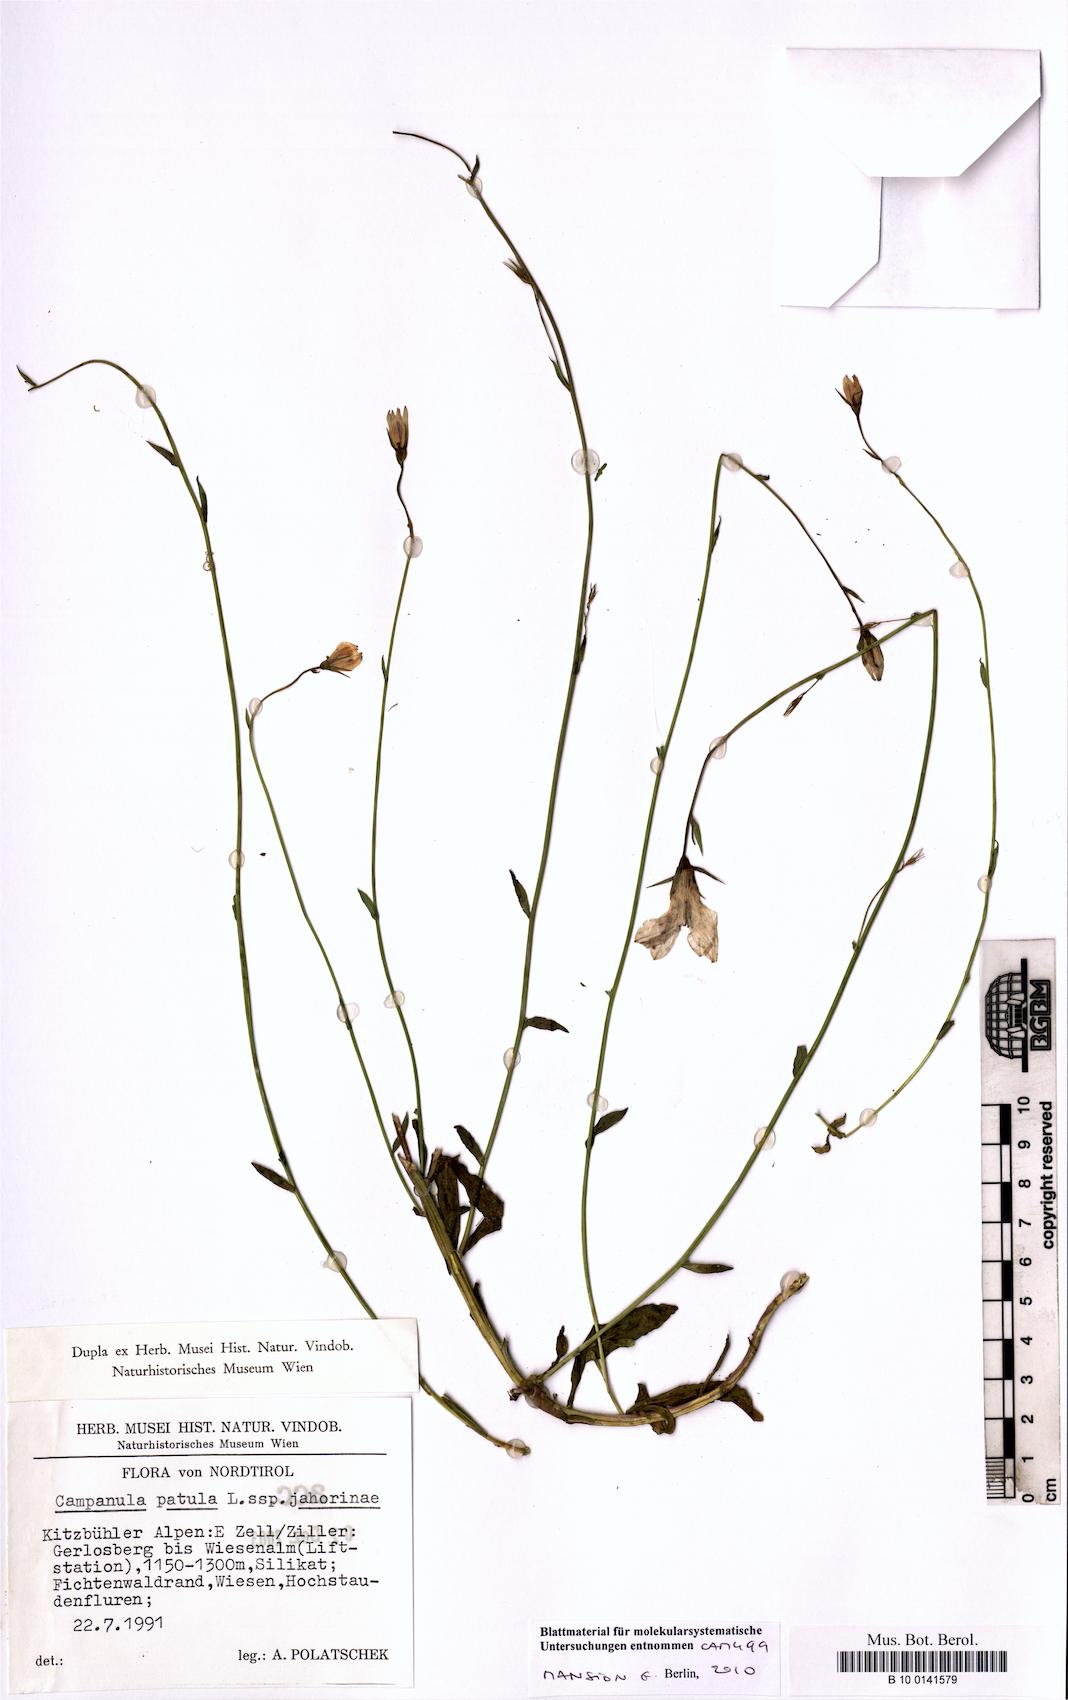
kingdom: Plantae
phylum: Tracheophyta
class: Magnoliopsida
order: Asterales
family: Campanulaceae
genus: Campanula
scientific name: Campanula patula
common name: Spreading bellflower
